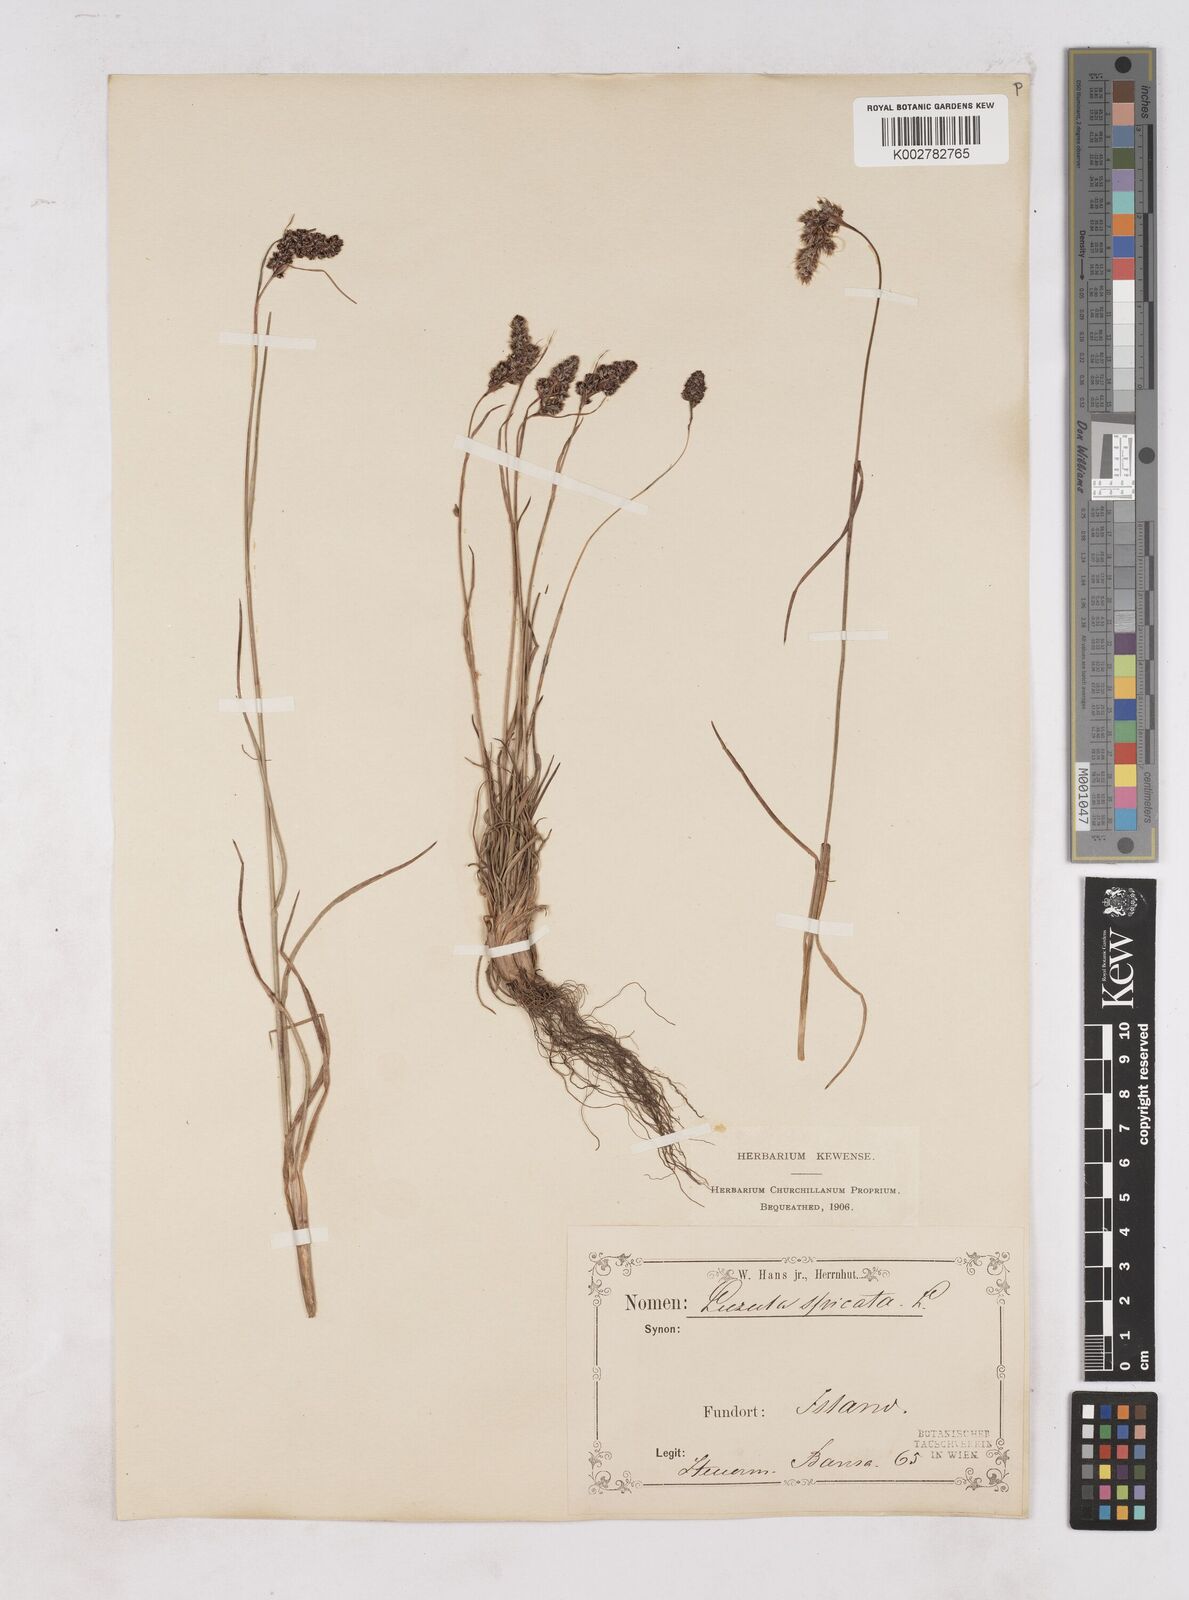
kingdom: Plantae
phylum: Tracheophyta
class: Liliopsida
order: Poales
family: Juncaceae
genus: Luzula
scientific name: Luzula spicata
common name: Spiked wood-rush
